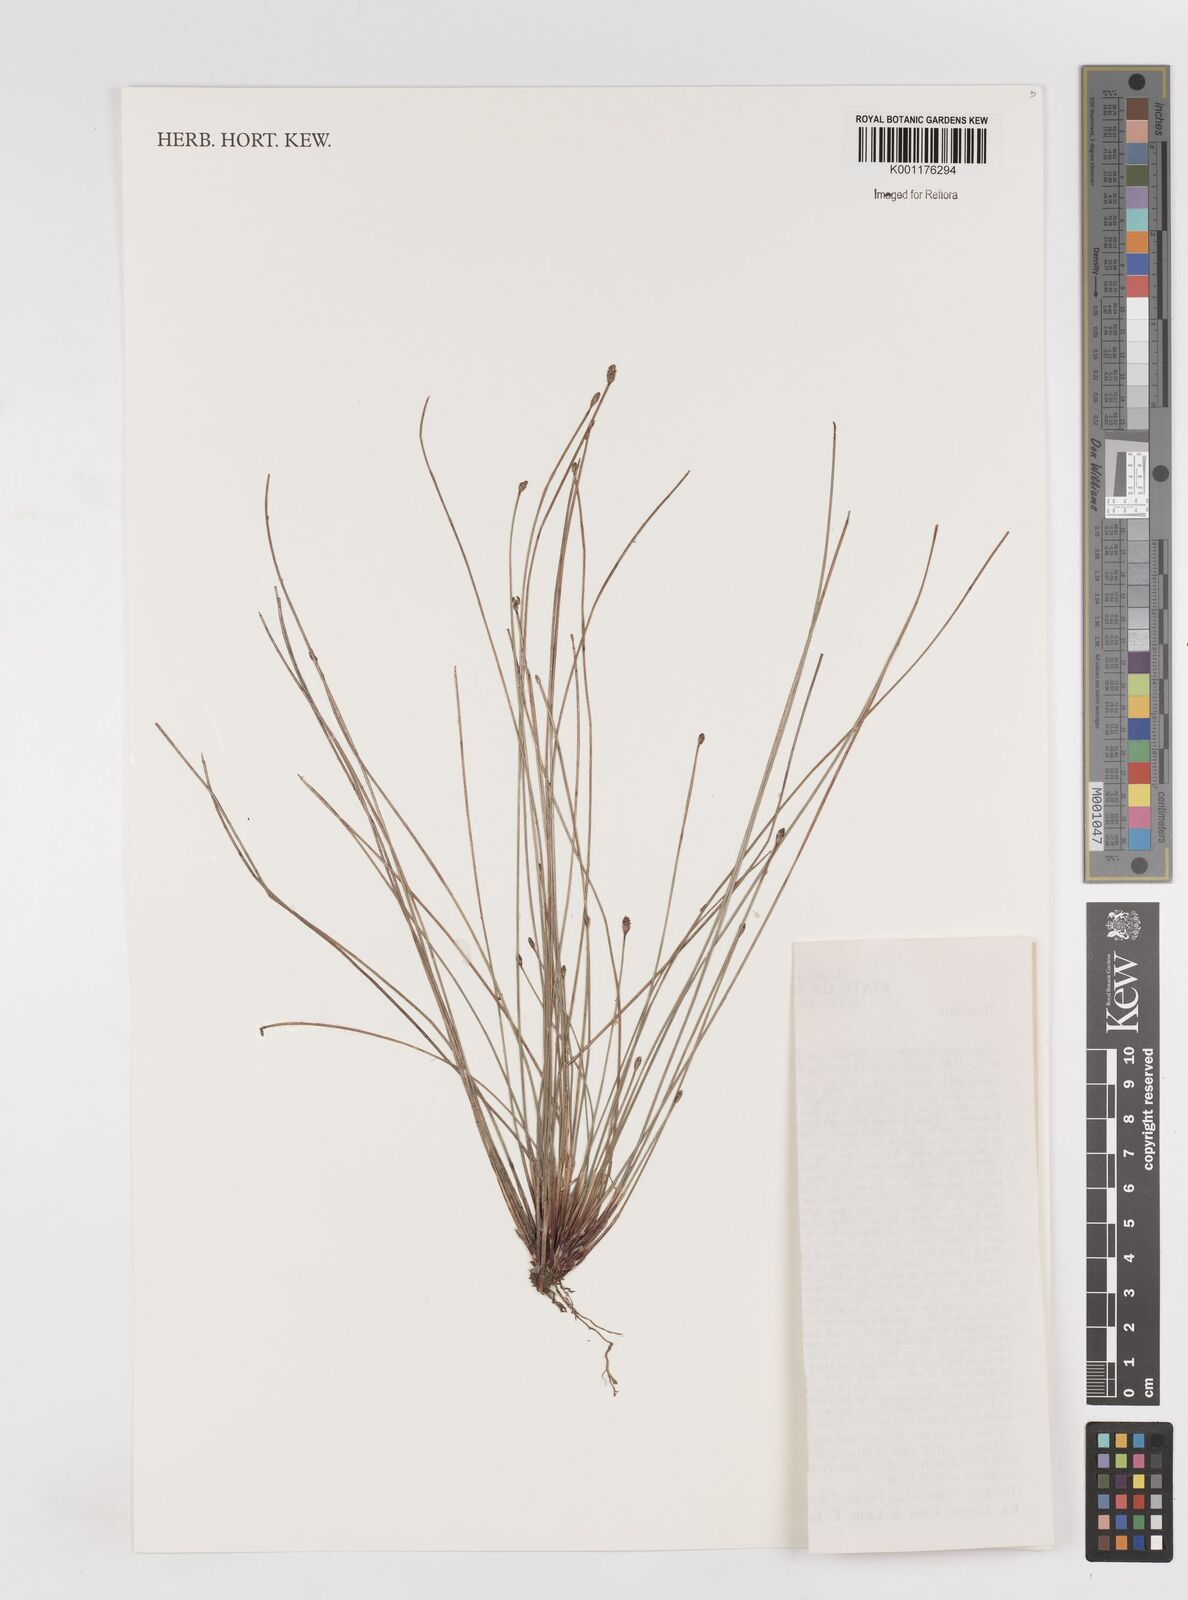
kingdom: Plantae
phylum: Tracheophyta
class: Liliopsida
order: Poales
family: Cyperaceae
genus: Eleocharis
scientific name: Eleocharis
